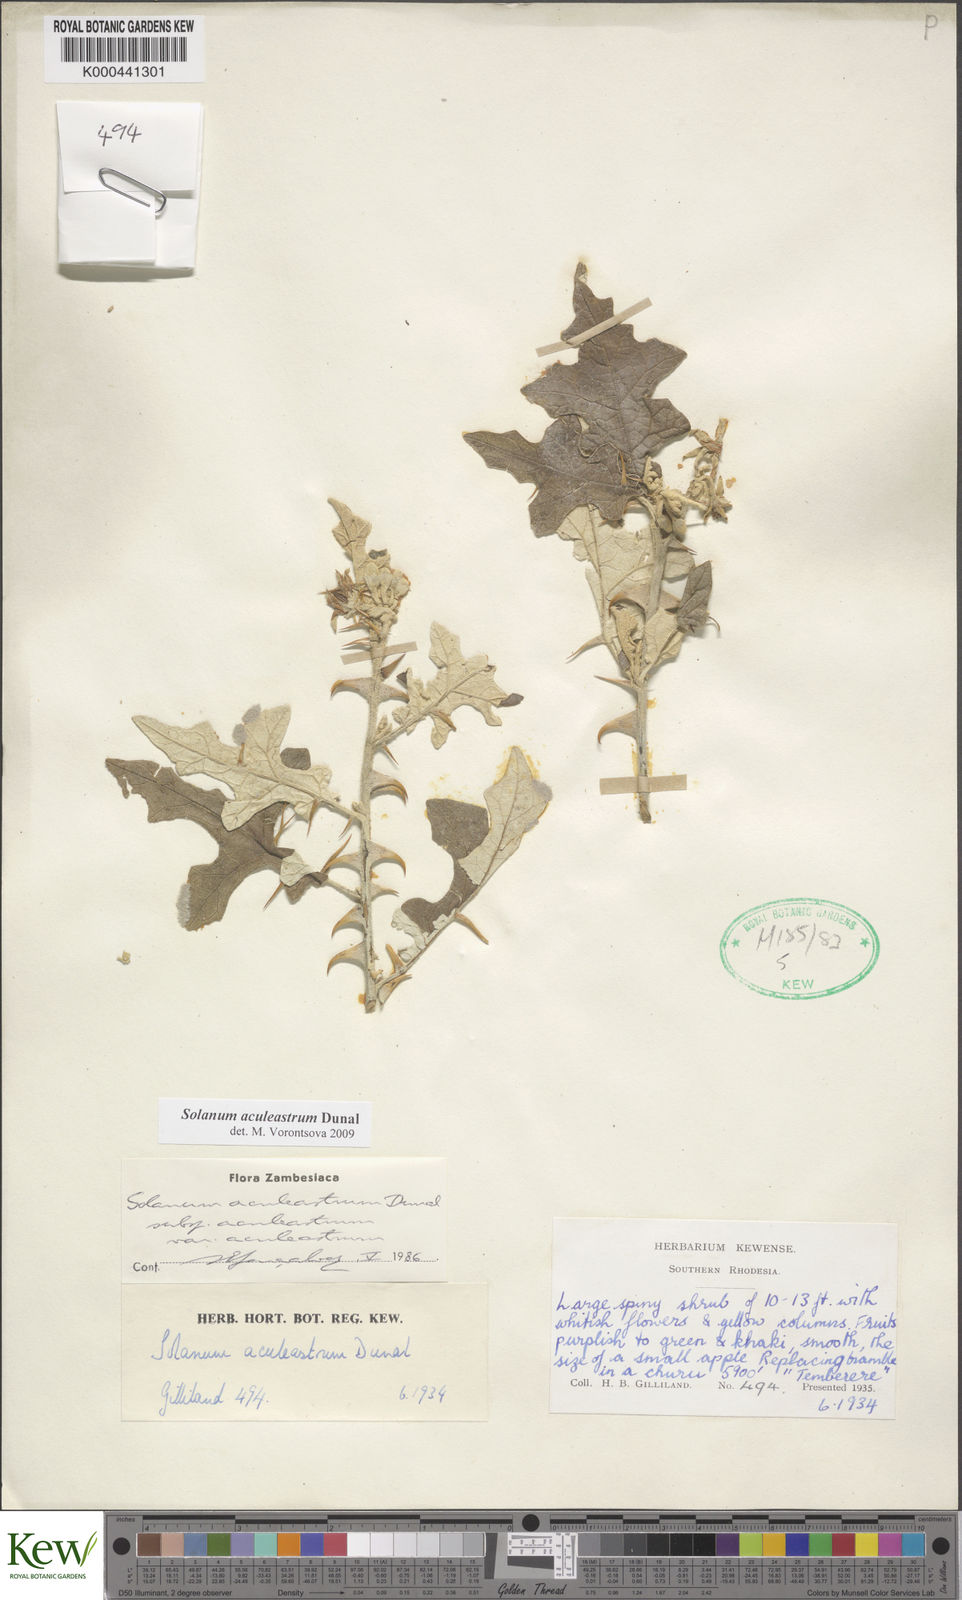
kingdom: Plantae
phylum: Tracheophyta
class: Magnoliopsida
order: Solanales
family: Solanaceae
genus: Solanum
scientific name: Solanum aculeastrum
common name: Goat bitter-apple
